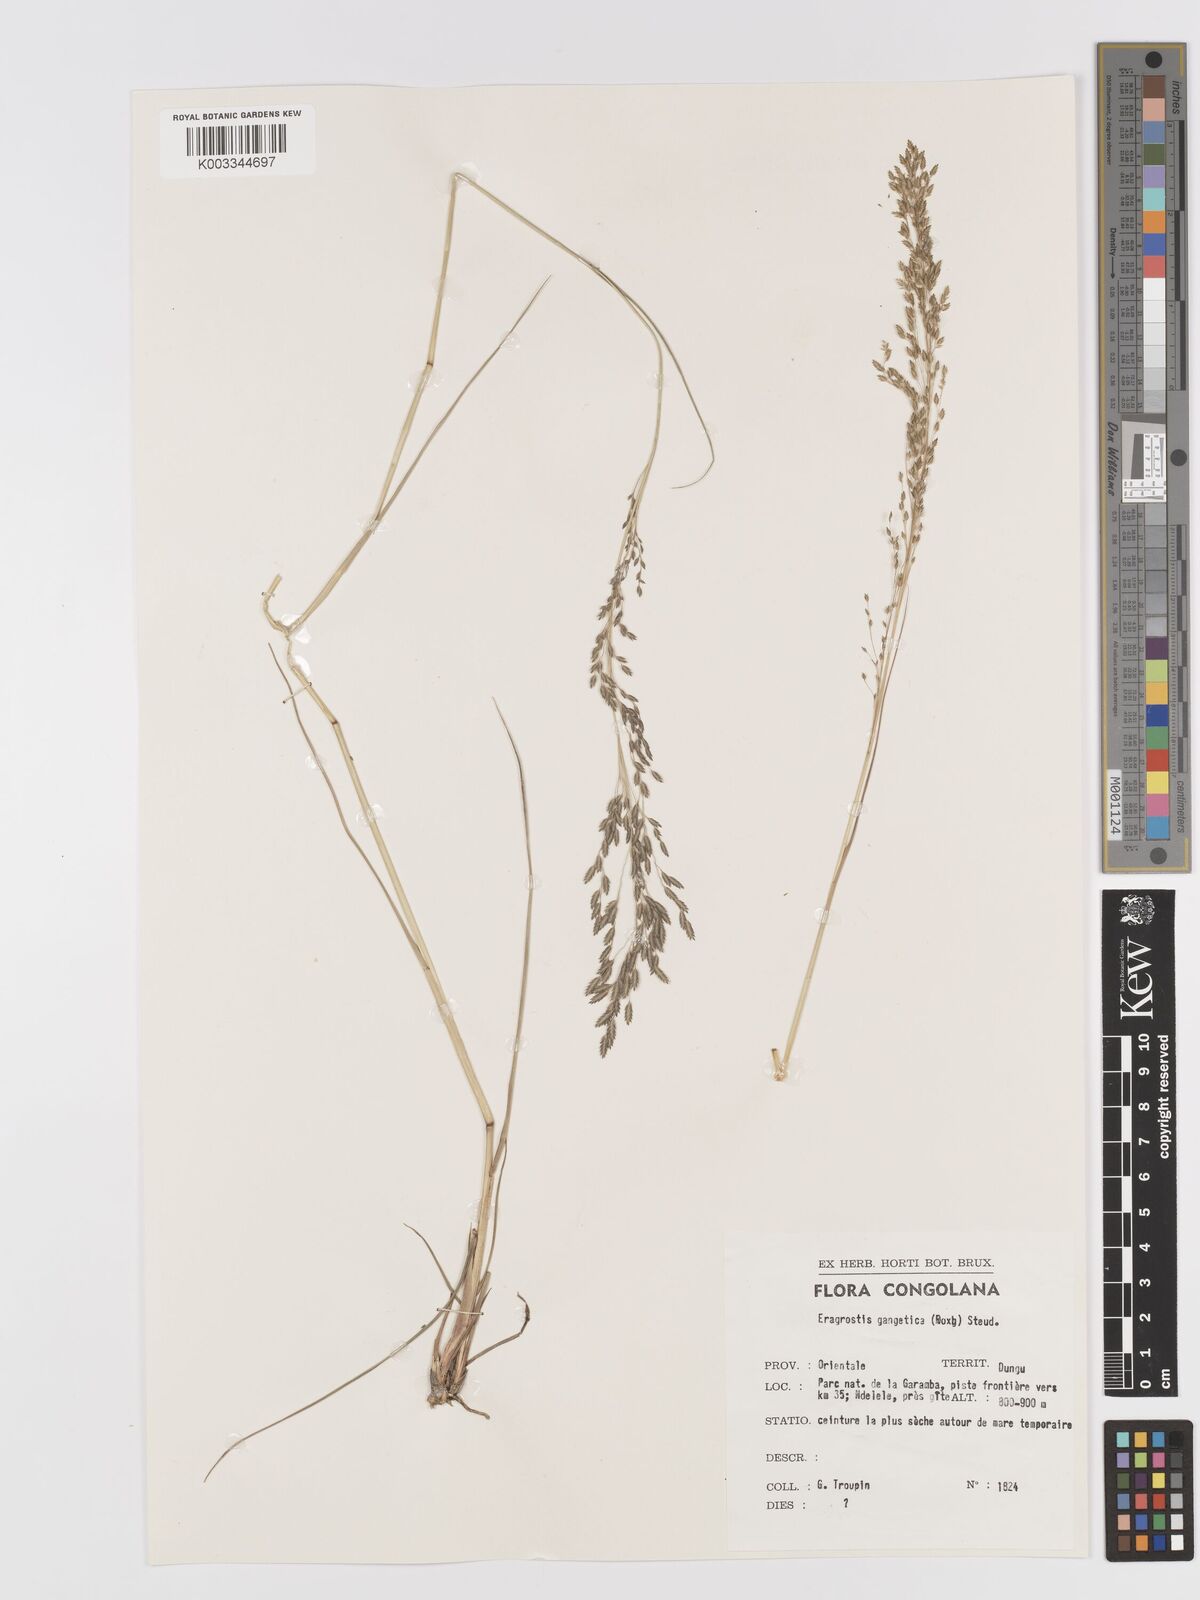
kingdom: Plantae
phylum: Tracheophyta
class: Liliopsida
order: Poales
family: Poaceae
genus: Eragrostis
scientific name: Eragrostis atrovirens
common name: Thalia lovegrass
